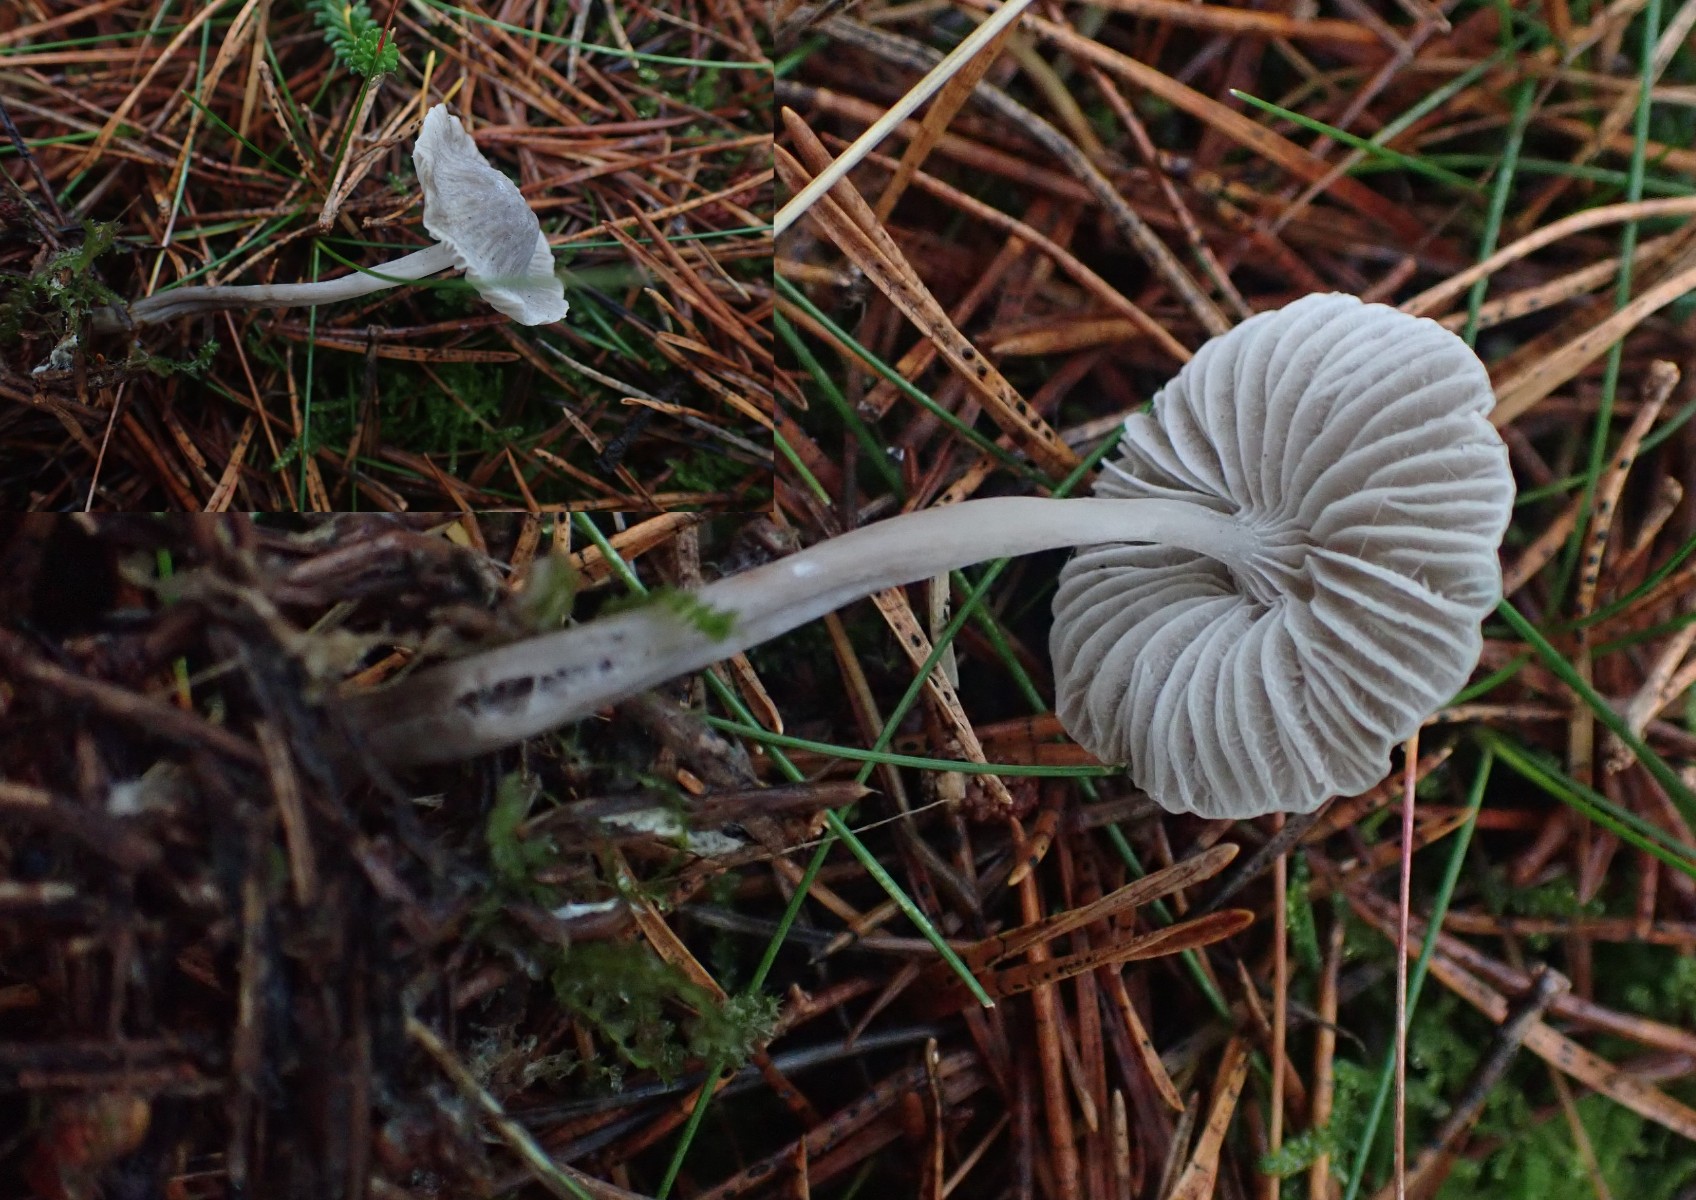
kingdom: Fungi
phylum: Basidiomycota
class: Agaricomycetes
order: Agaricales
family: Mycenaceae
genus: Mycena
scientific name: Mycena cinerella
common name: mel-huesvamp
